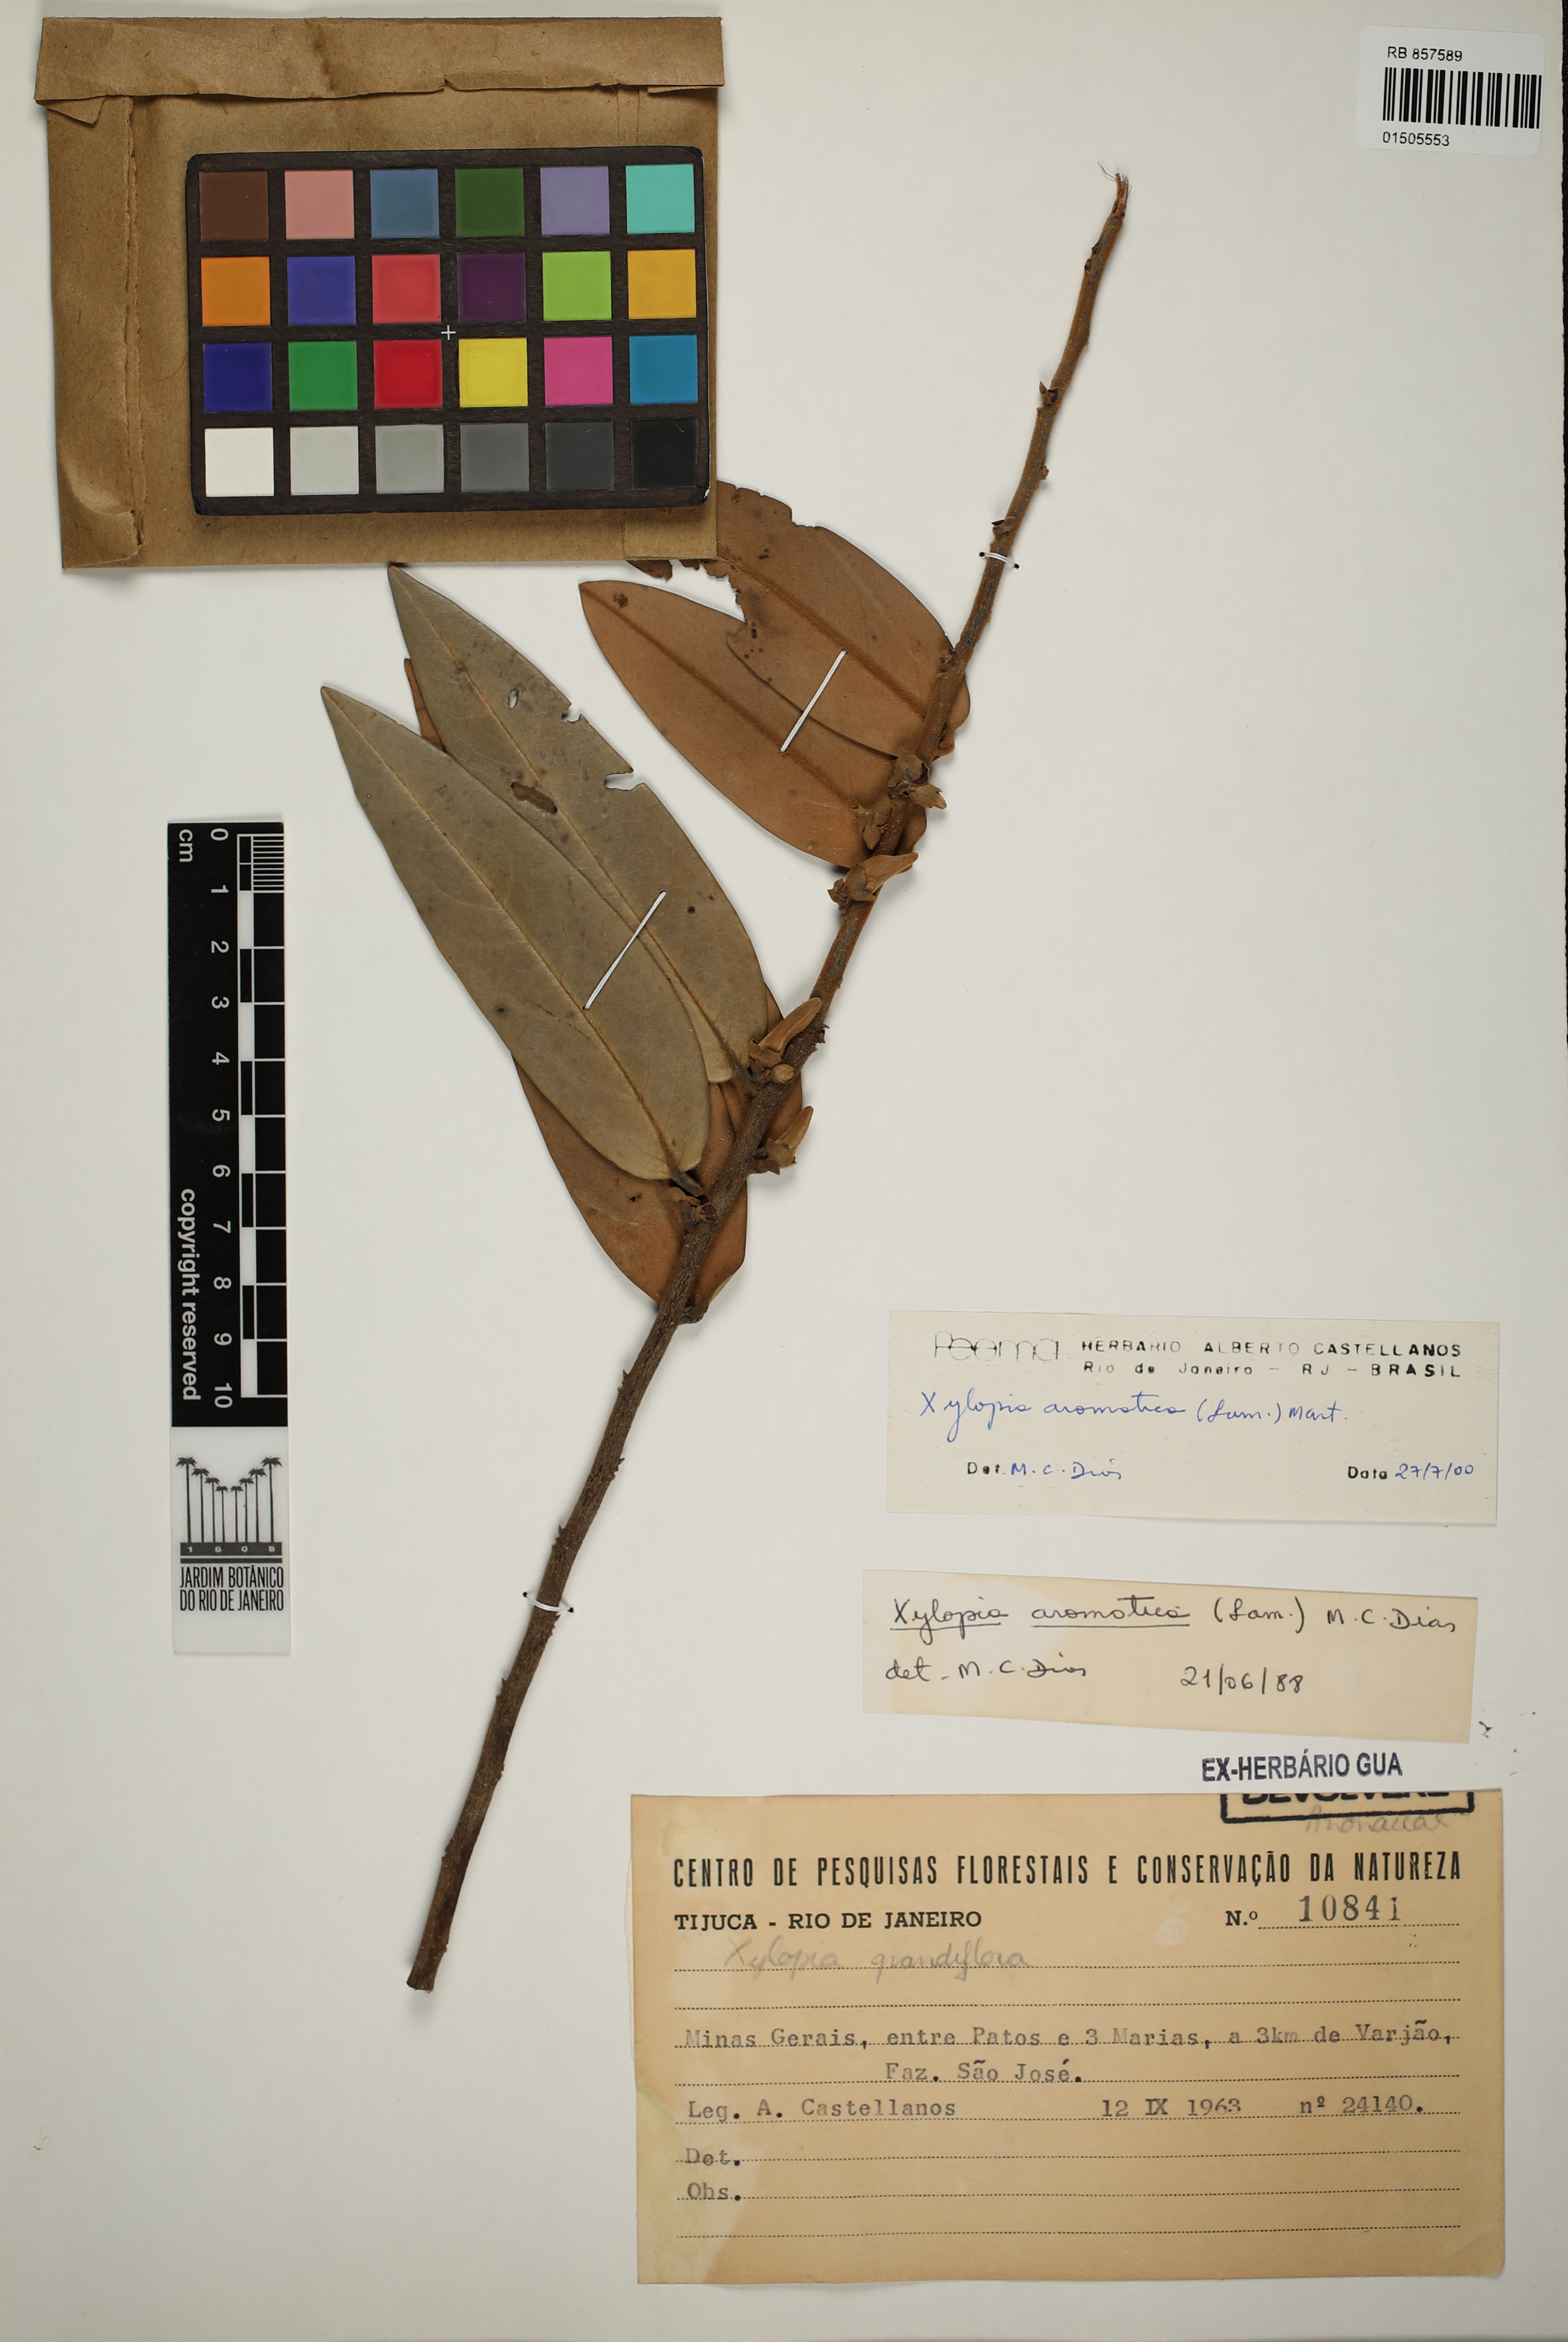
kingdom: Plantae
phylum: Tracheophyta
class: Magnoliopsida
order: Magnoliales
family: Annonaceae
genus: Xylopia
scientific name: Xylopia aromatica
